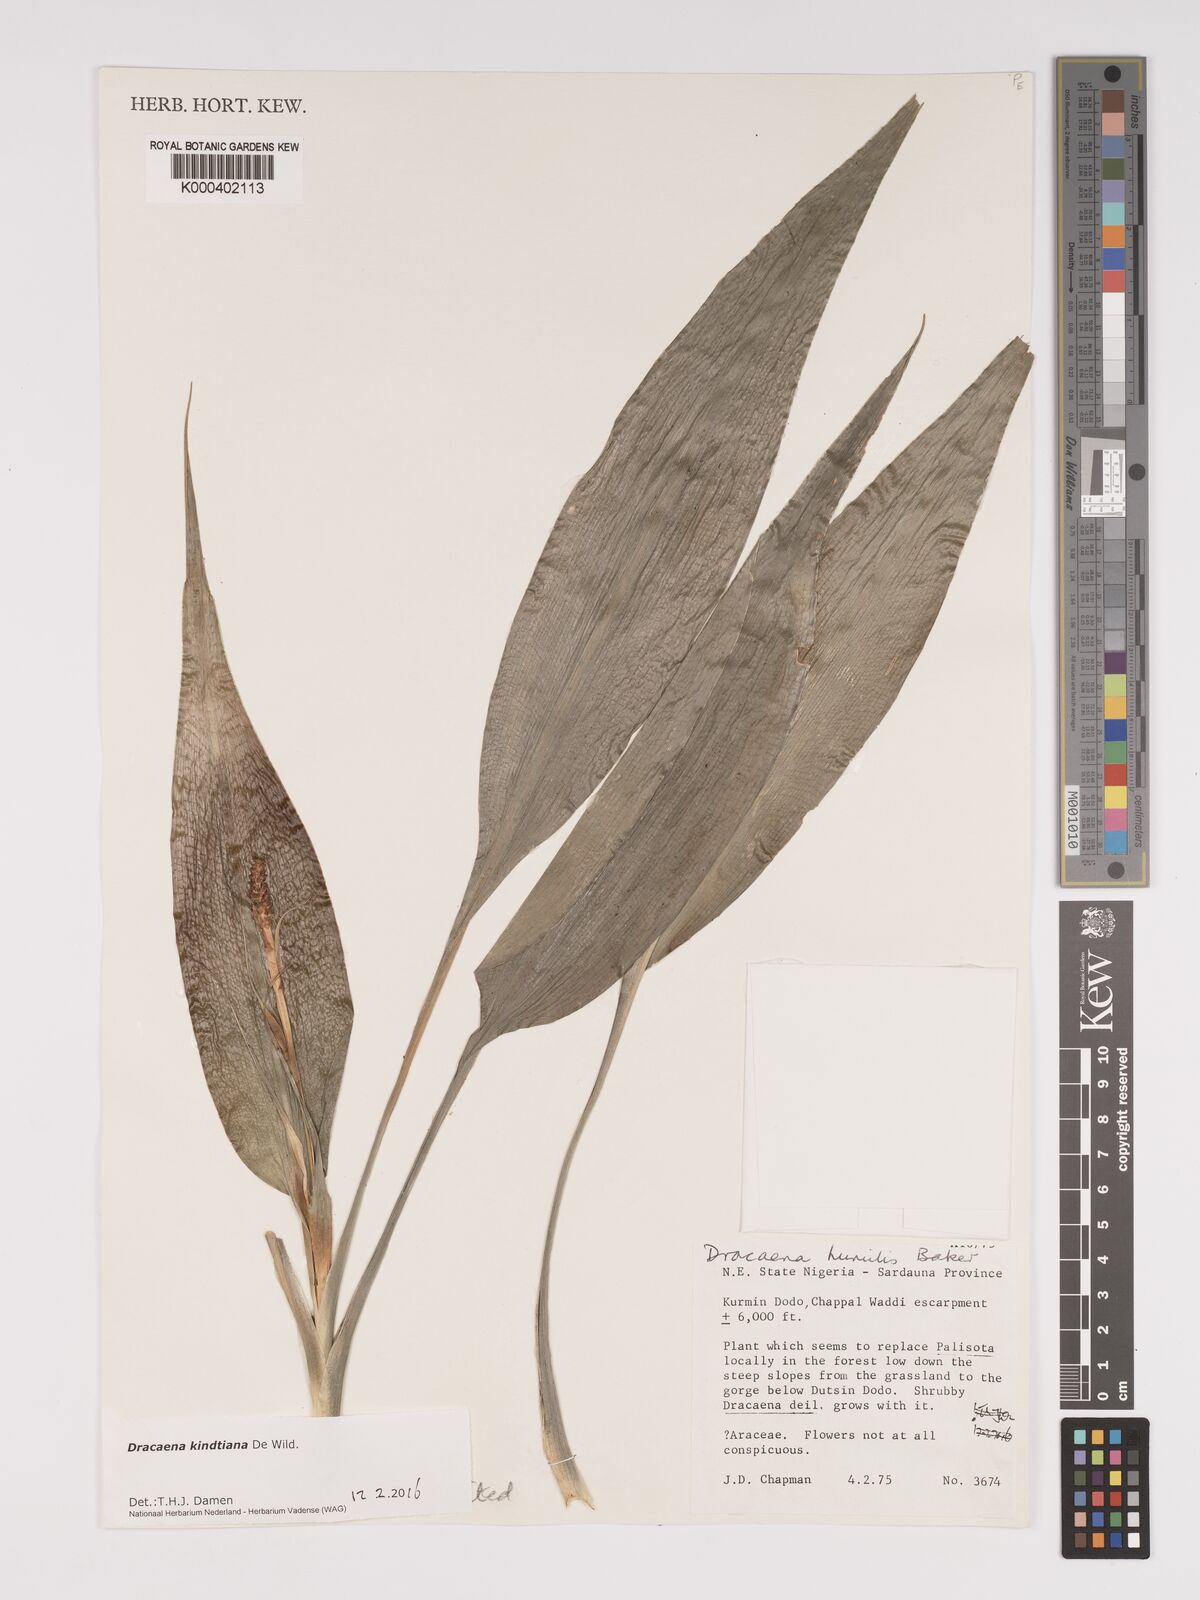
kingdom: Plantae
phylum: Tracheophyta
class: Liliopsida
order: Asparagales
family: Asparagaceae
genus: Dracaena
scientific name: Dracaena kindtiana
